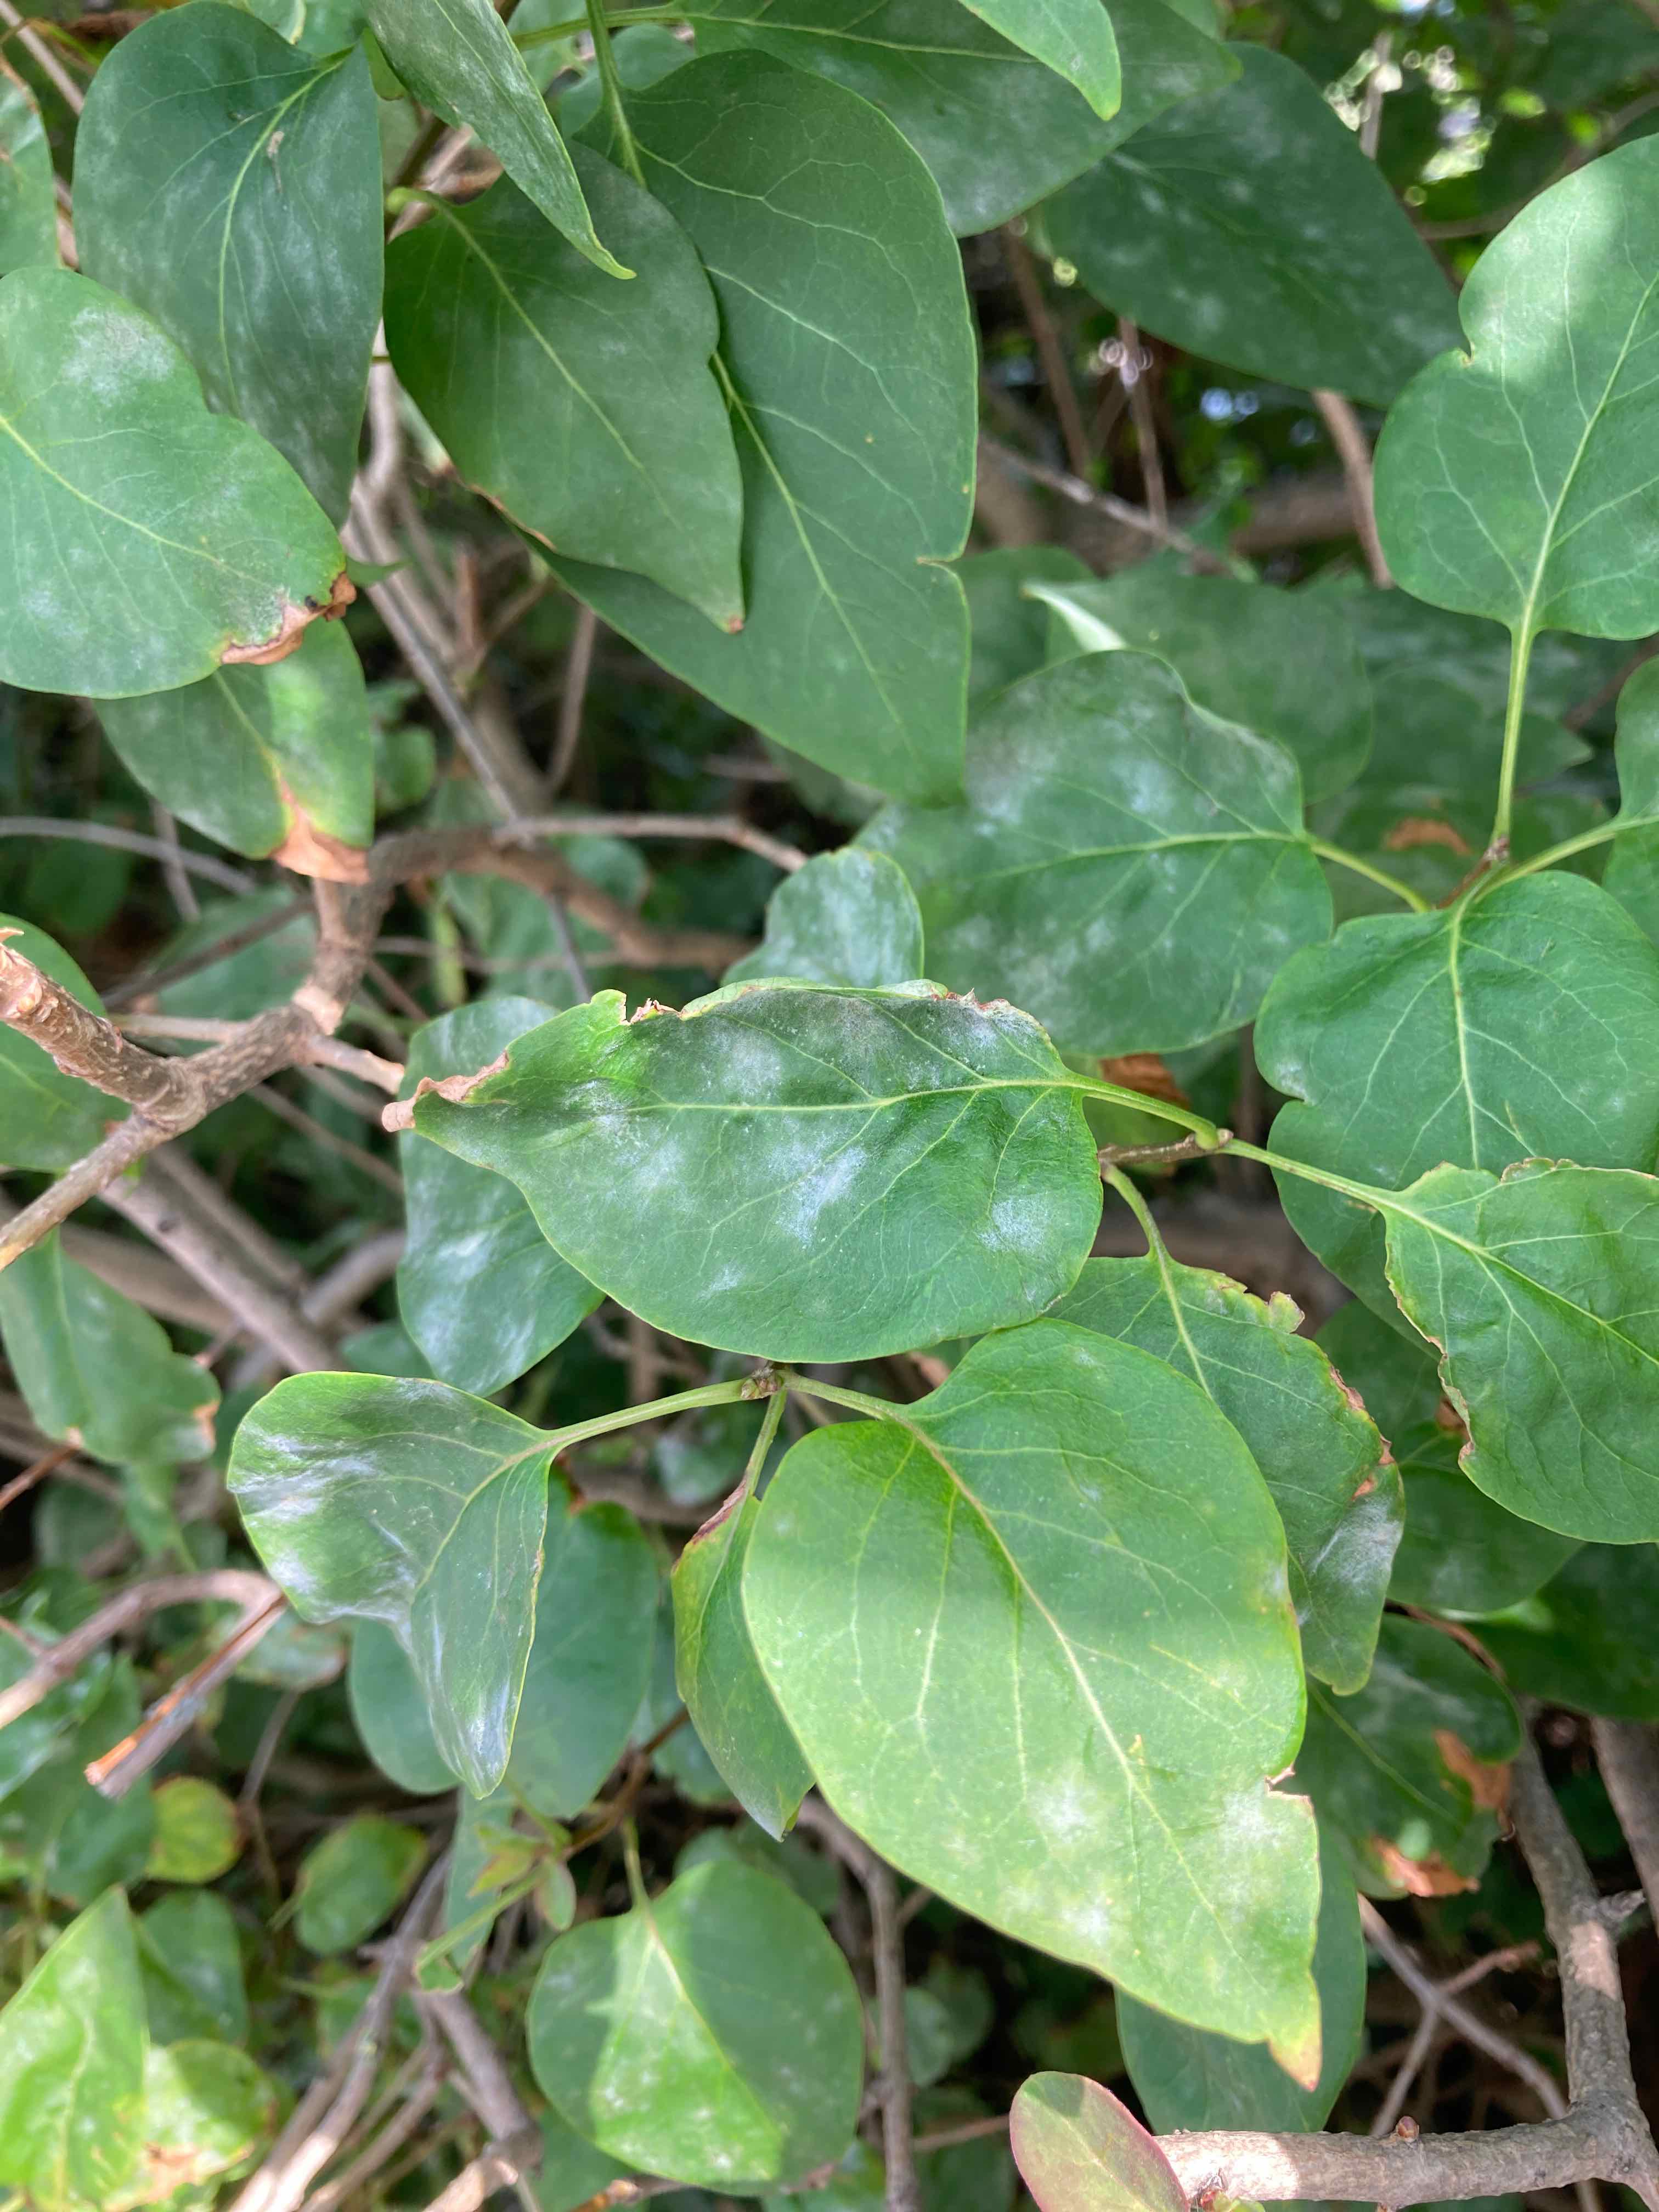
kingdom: Fungi
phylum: Ascomycota
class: Leotiomycetes
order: Helotiales
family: Erysiphaceae
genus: Erysiphe
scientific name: Erysiphe syringae-japonicae
